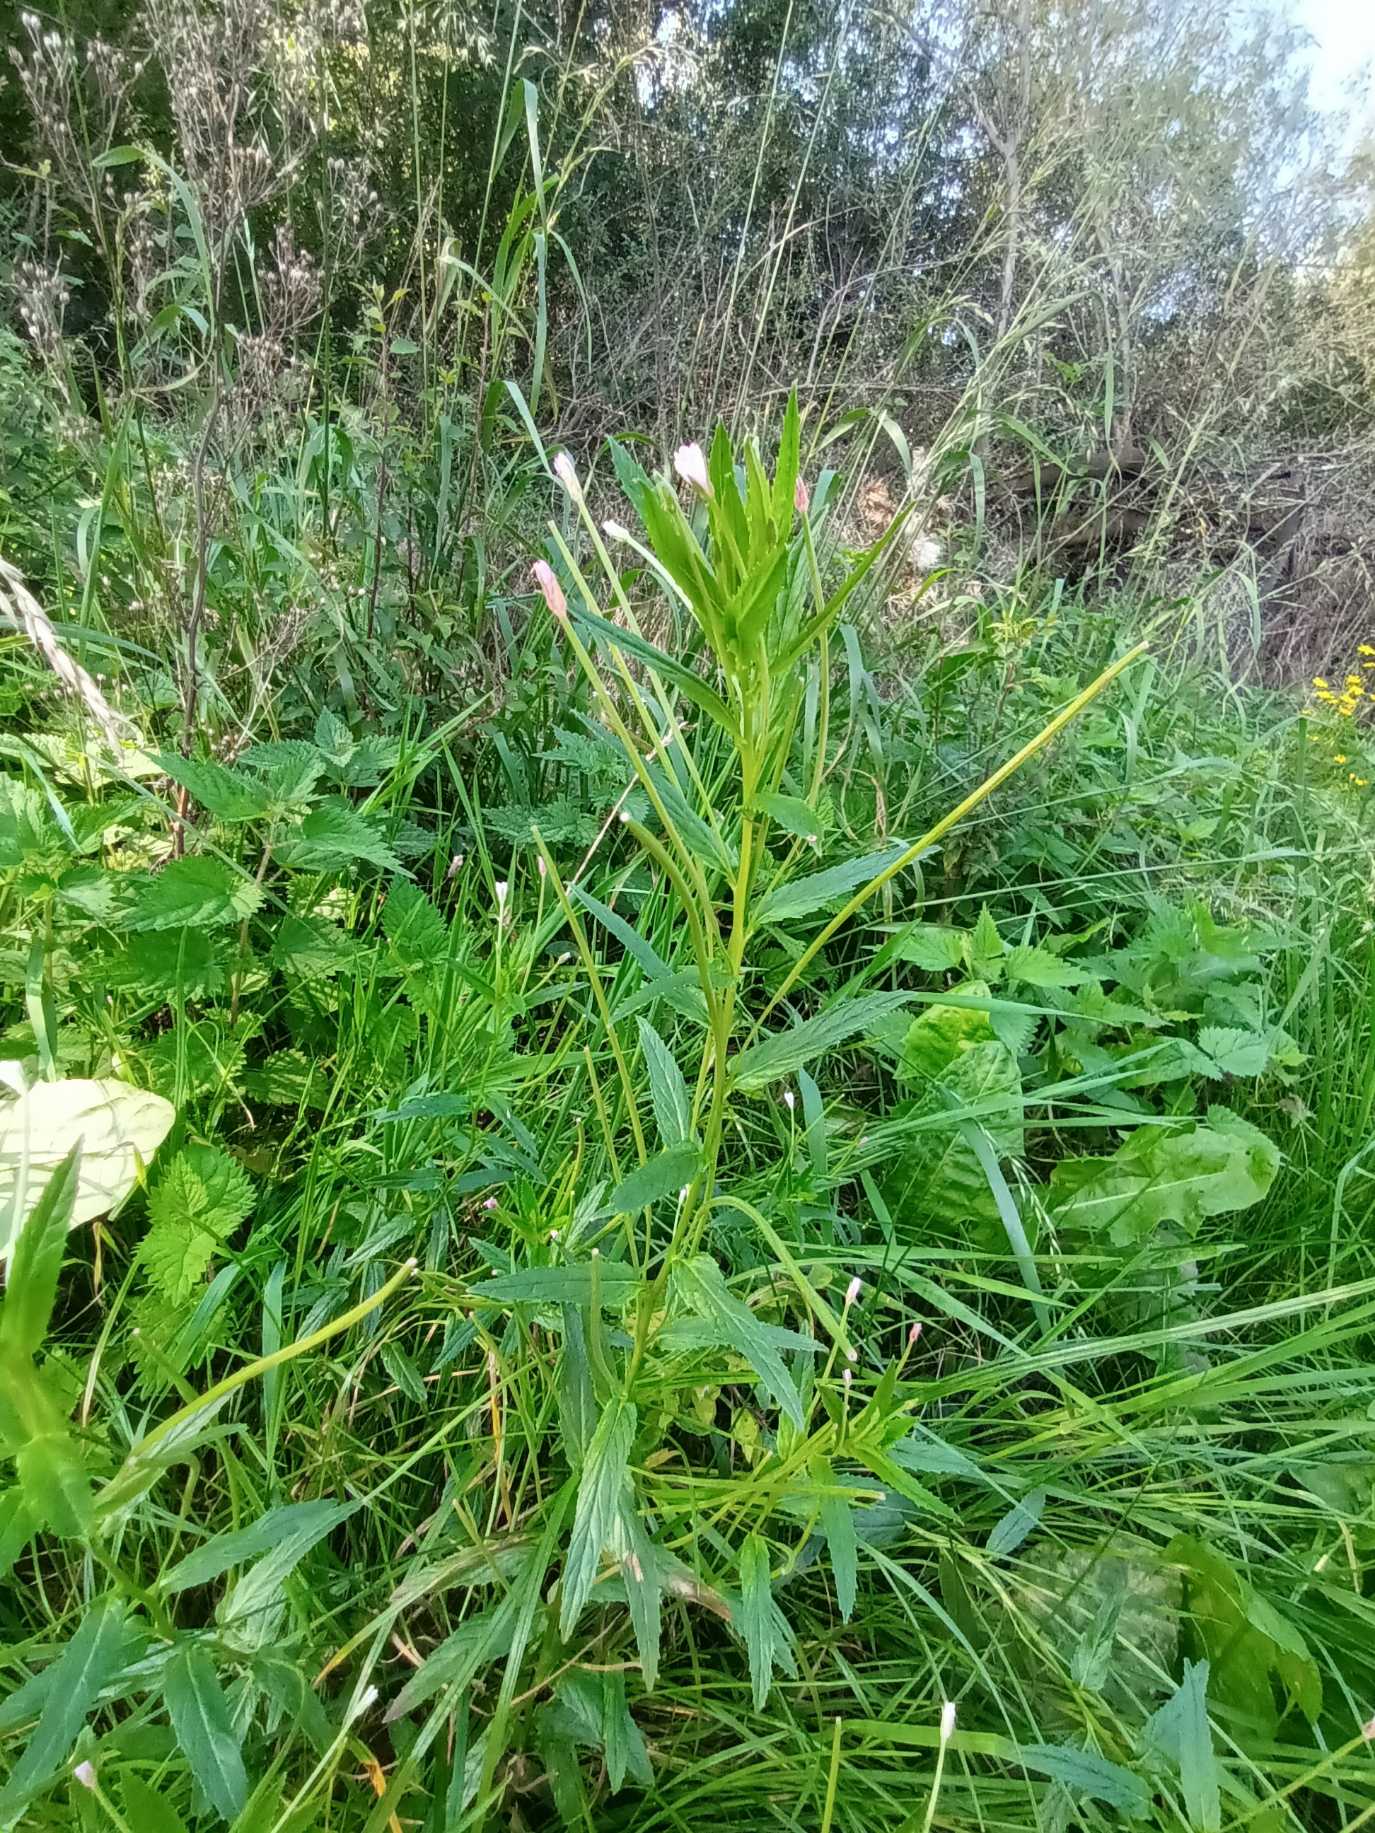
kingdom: Plantae
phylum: Tracheophyta
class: Magnoliopsida
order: Myrtales
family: Onagraceae
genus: Epilobium
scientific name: Epilobium tetragonum
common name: Kantet dueurt
